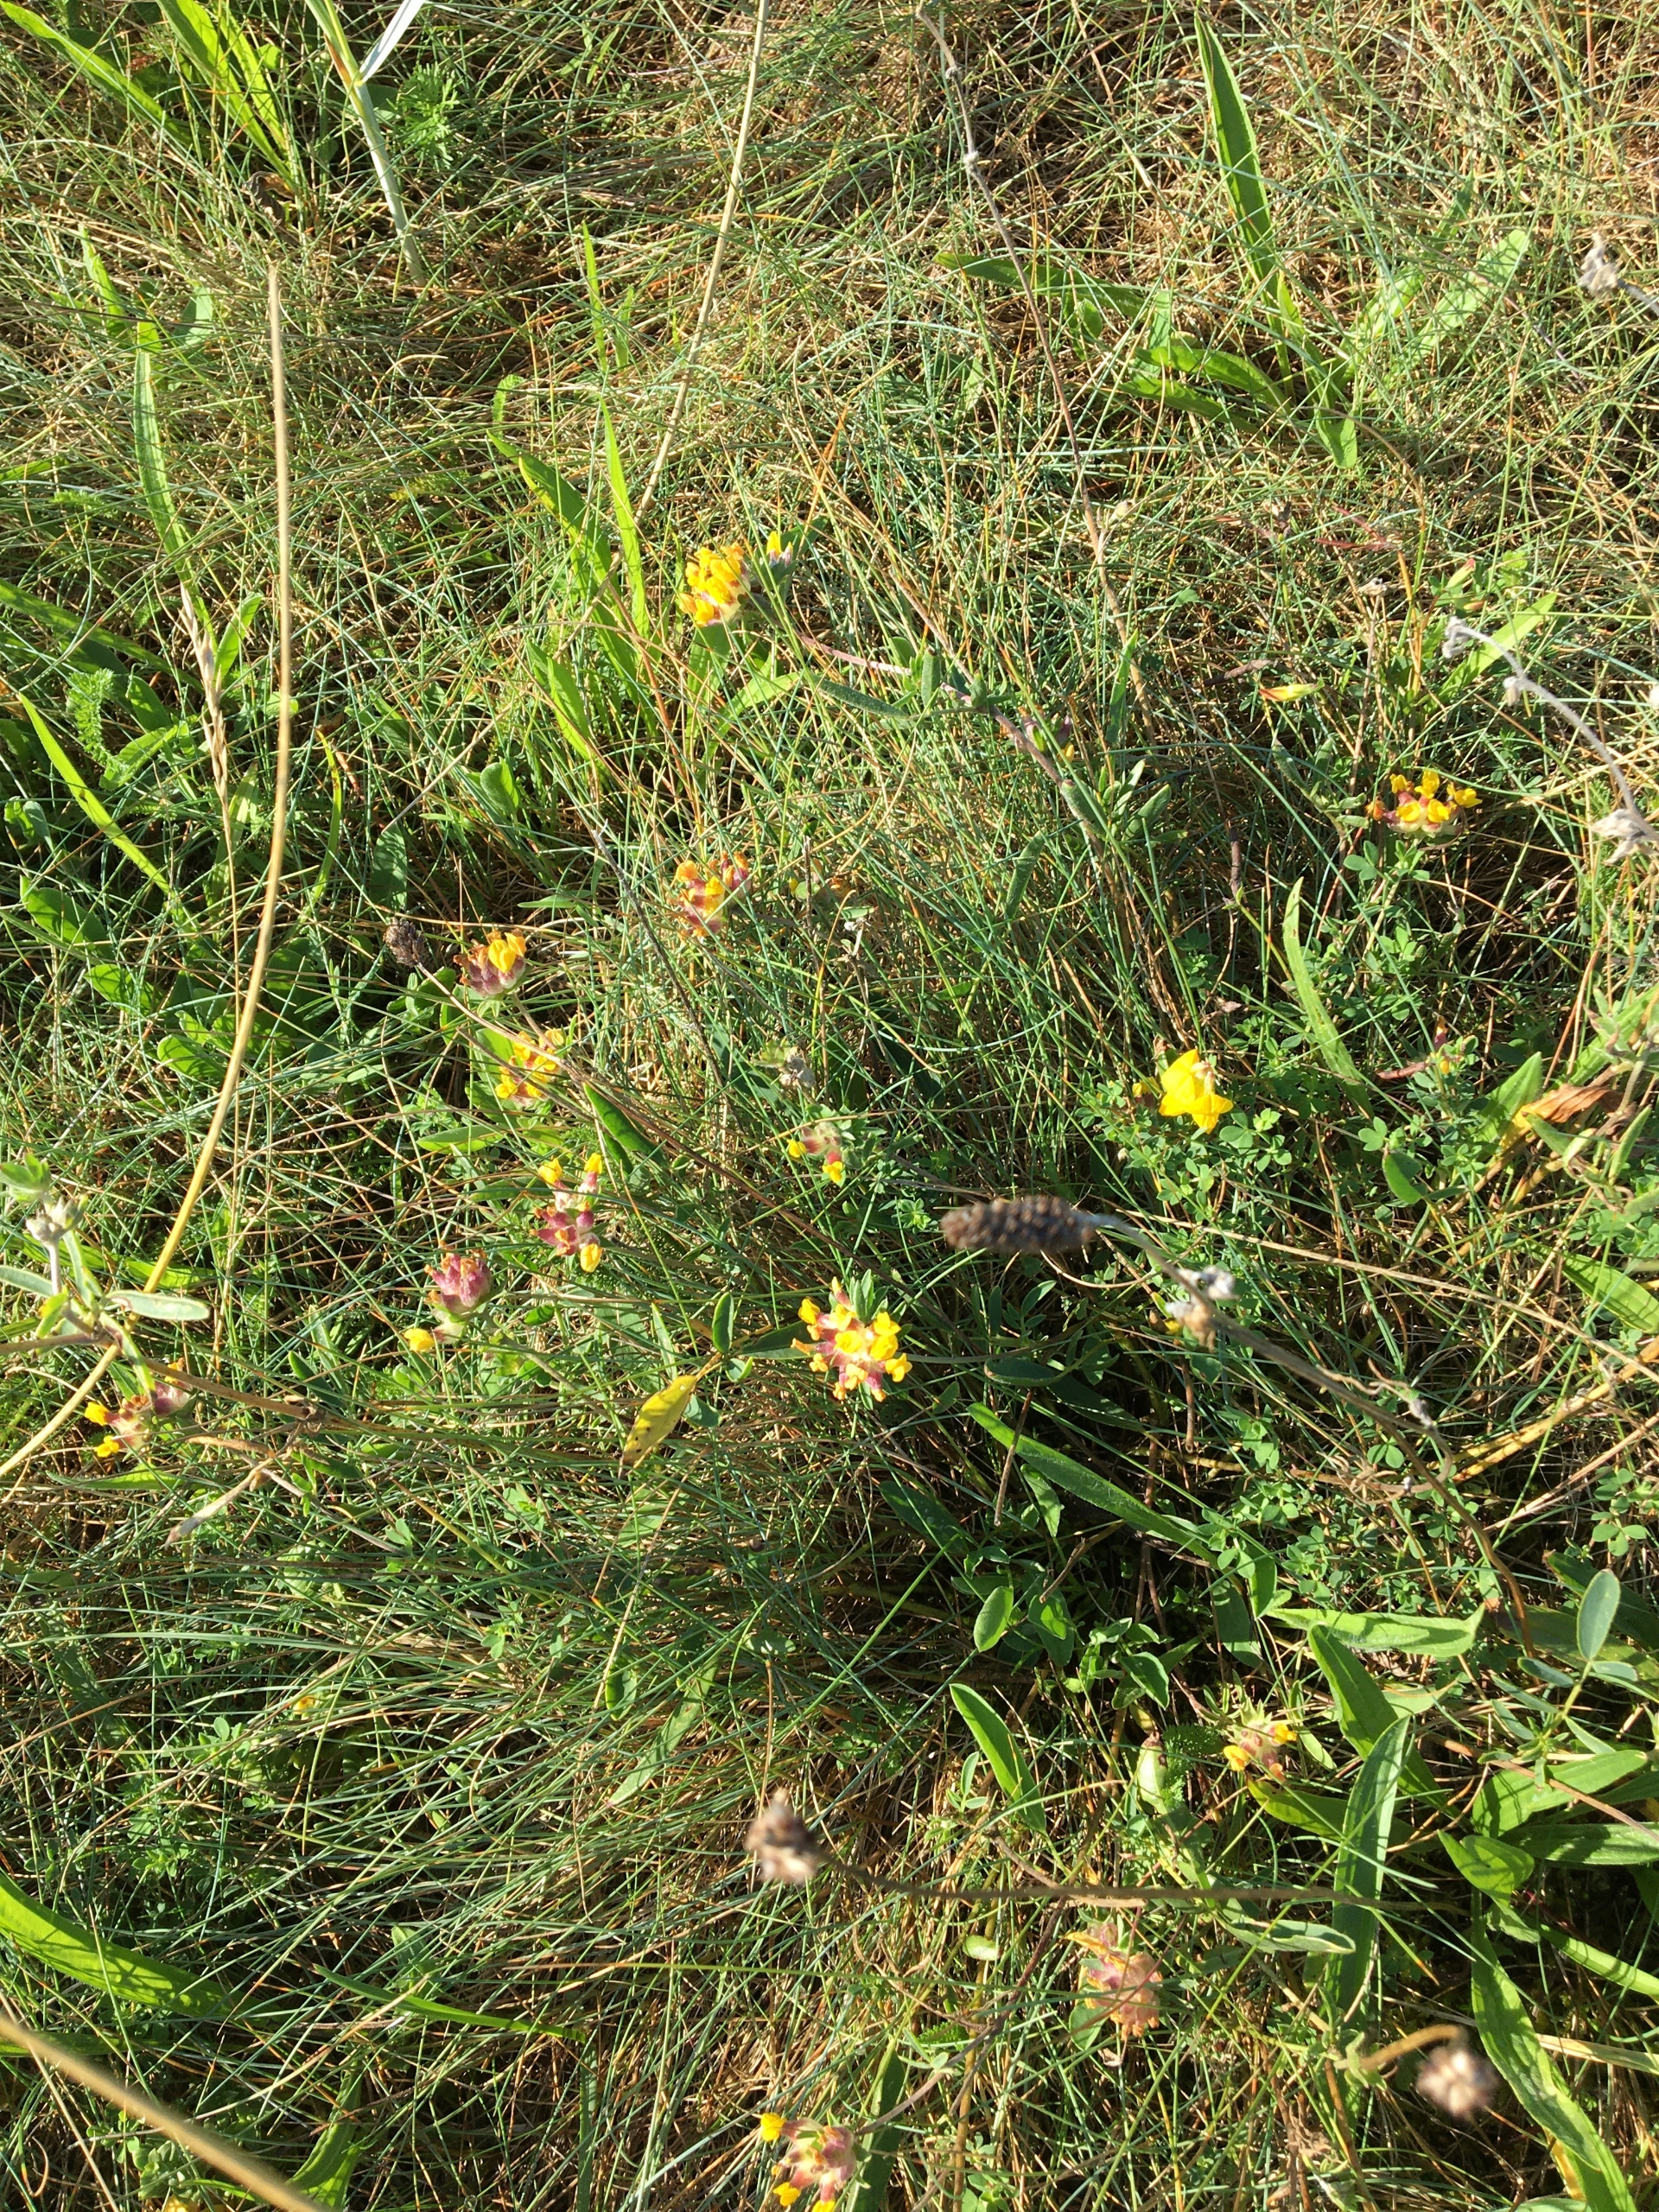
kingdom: Plantae
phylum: Tracheophyta
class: Magnoliopsida
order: Fabales
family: Fabaceae
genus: Anthyllis
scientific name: Anthyllis vulneraria
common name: Rundbælg
